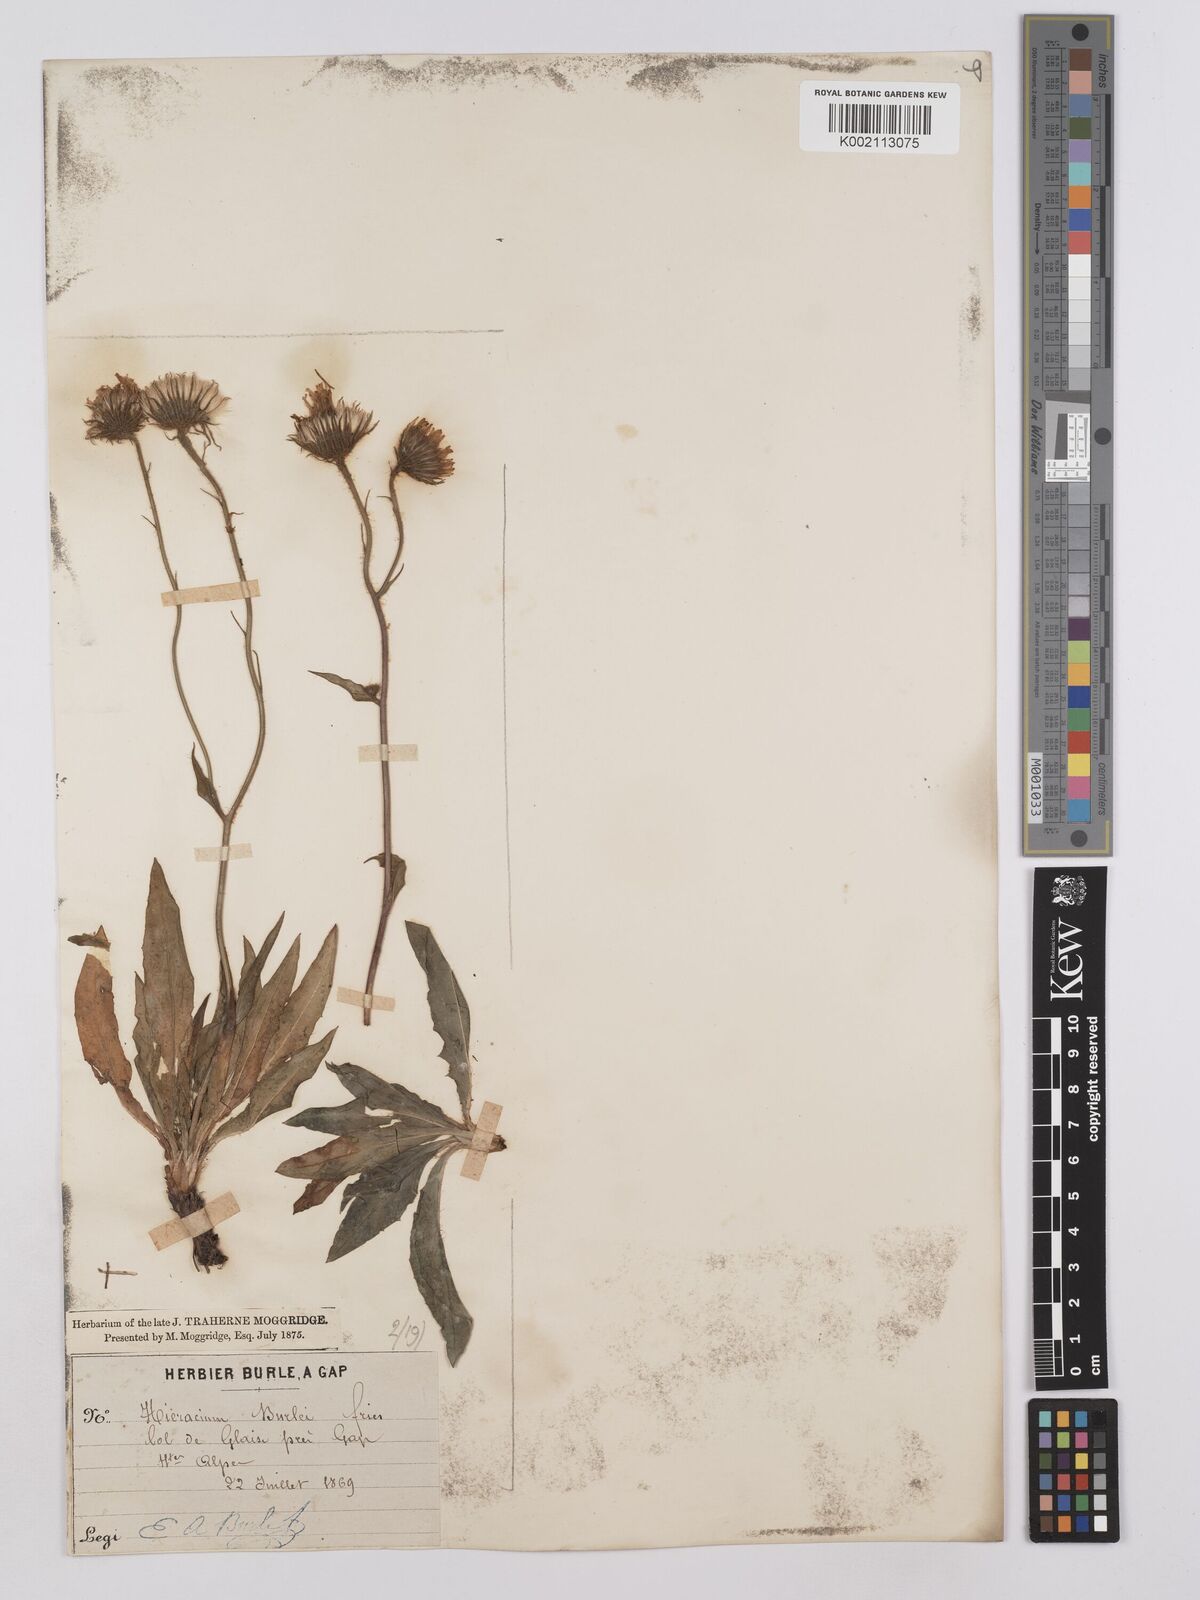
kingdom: Plantae
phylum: Tracheophyta
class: Magnoliopsida
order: Asterales
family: Asteraceae
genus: Hieracium
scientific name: Hieracium bupleuroides
